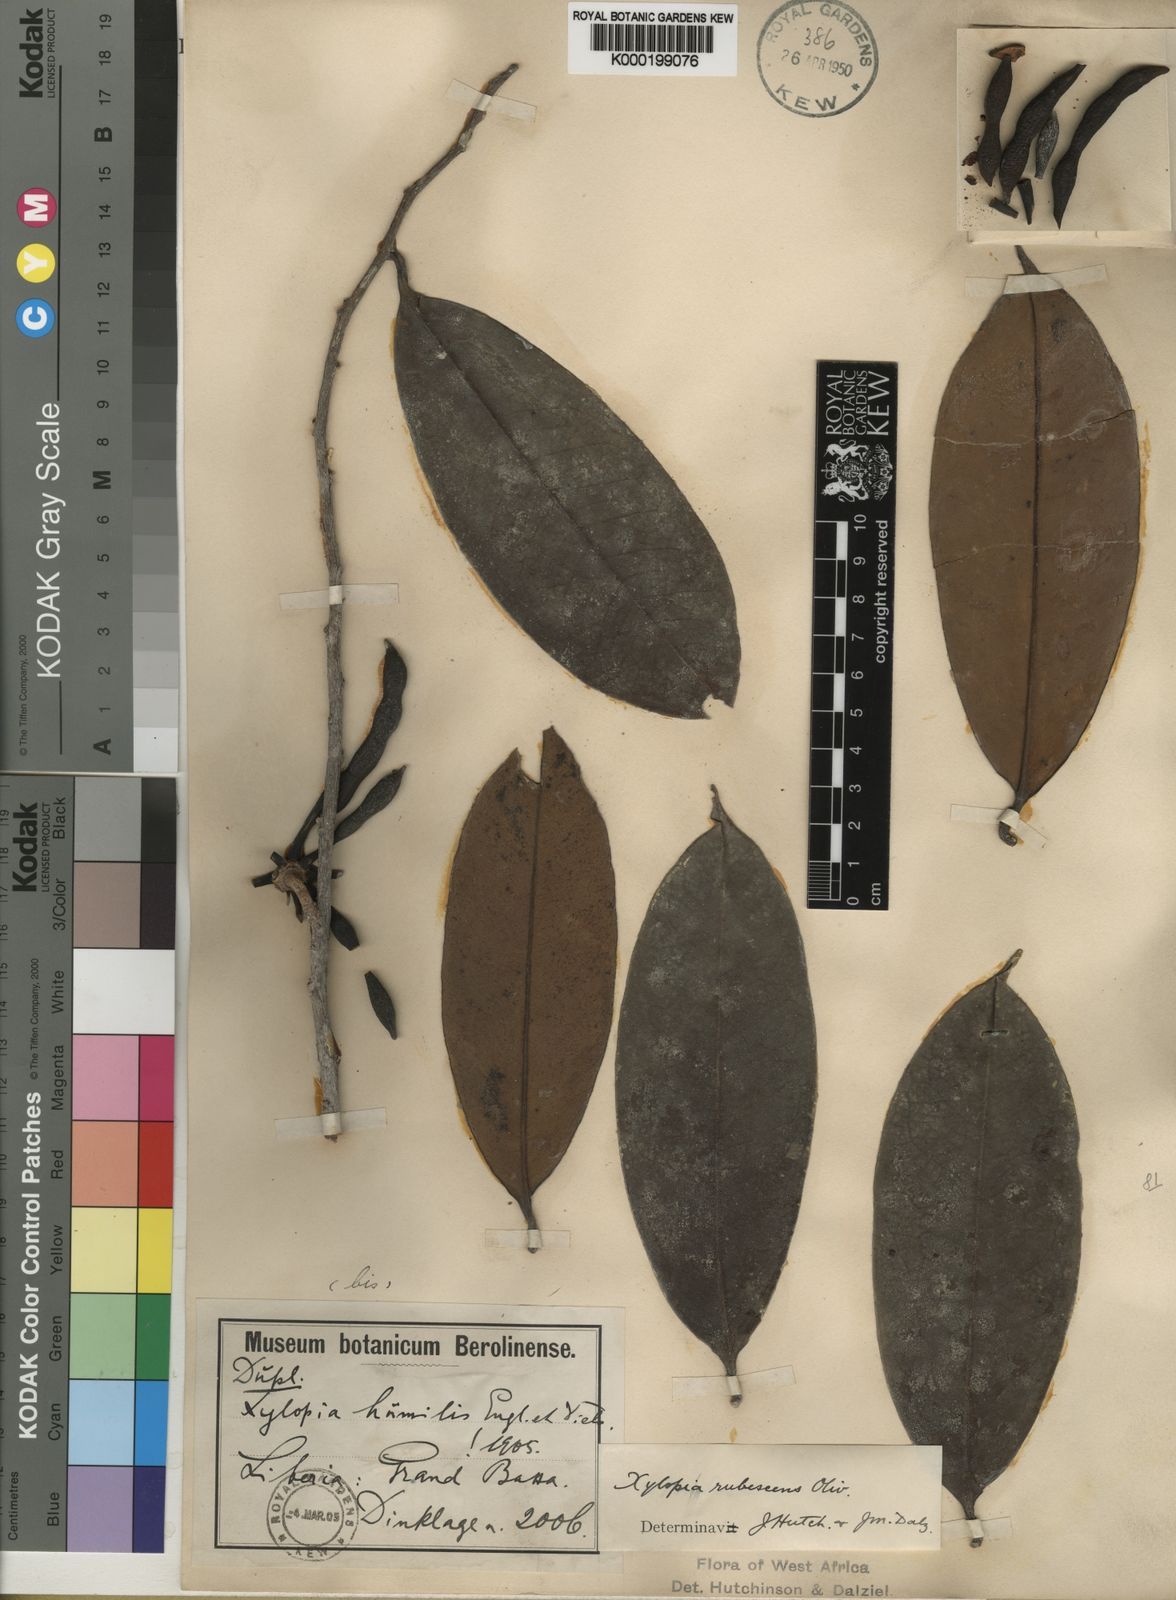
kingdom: Plantae
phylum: Tracheophyta
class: Magnoliopsida
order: Magnoliales
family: Annonaceae
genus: Xylopia
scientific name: Xylopia rubescens
